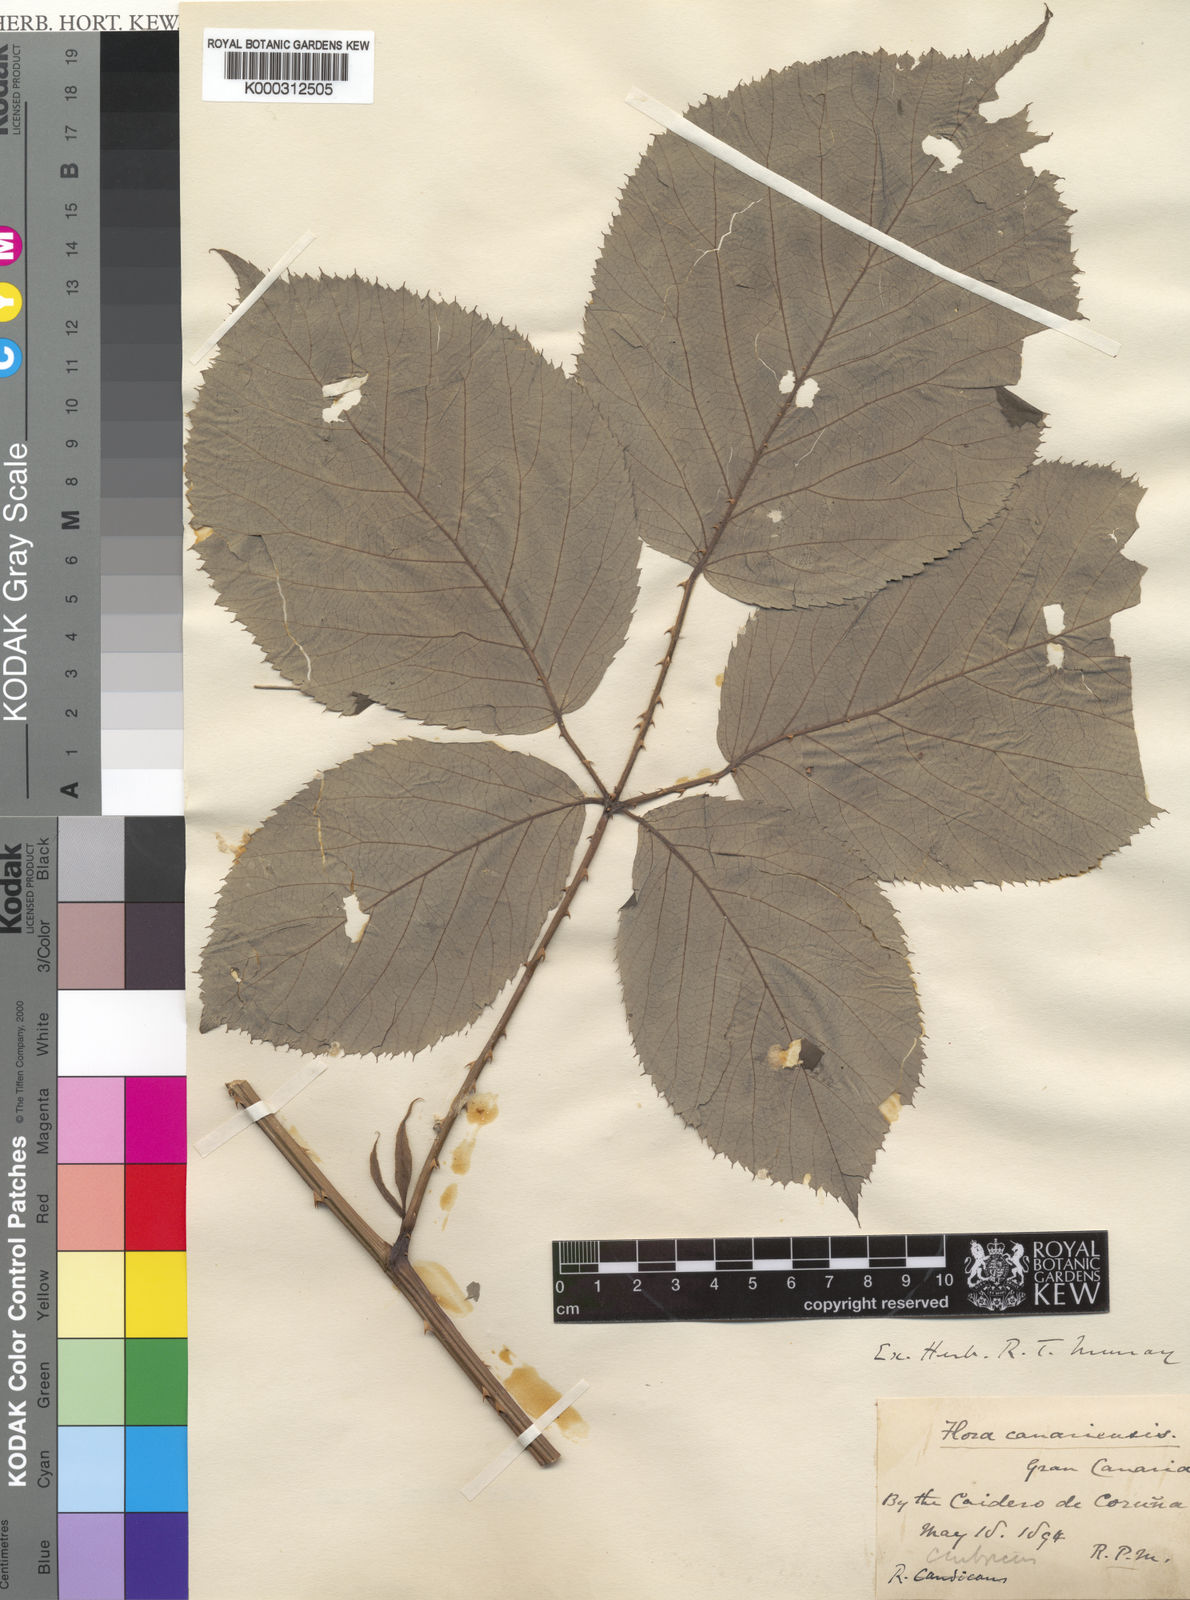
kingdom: Plantae
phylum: Tracheophyta
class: Magnoliopsida
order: Rosales
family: Rosaceae
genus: Rubus
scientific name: Rubus cimbricus
